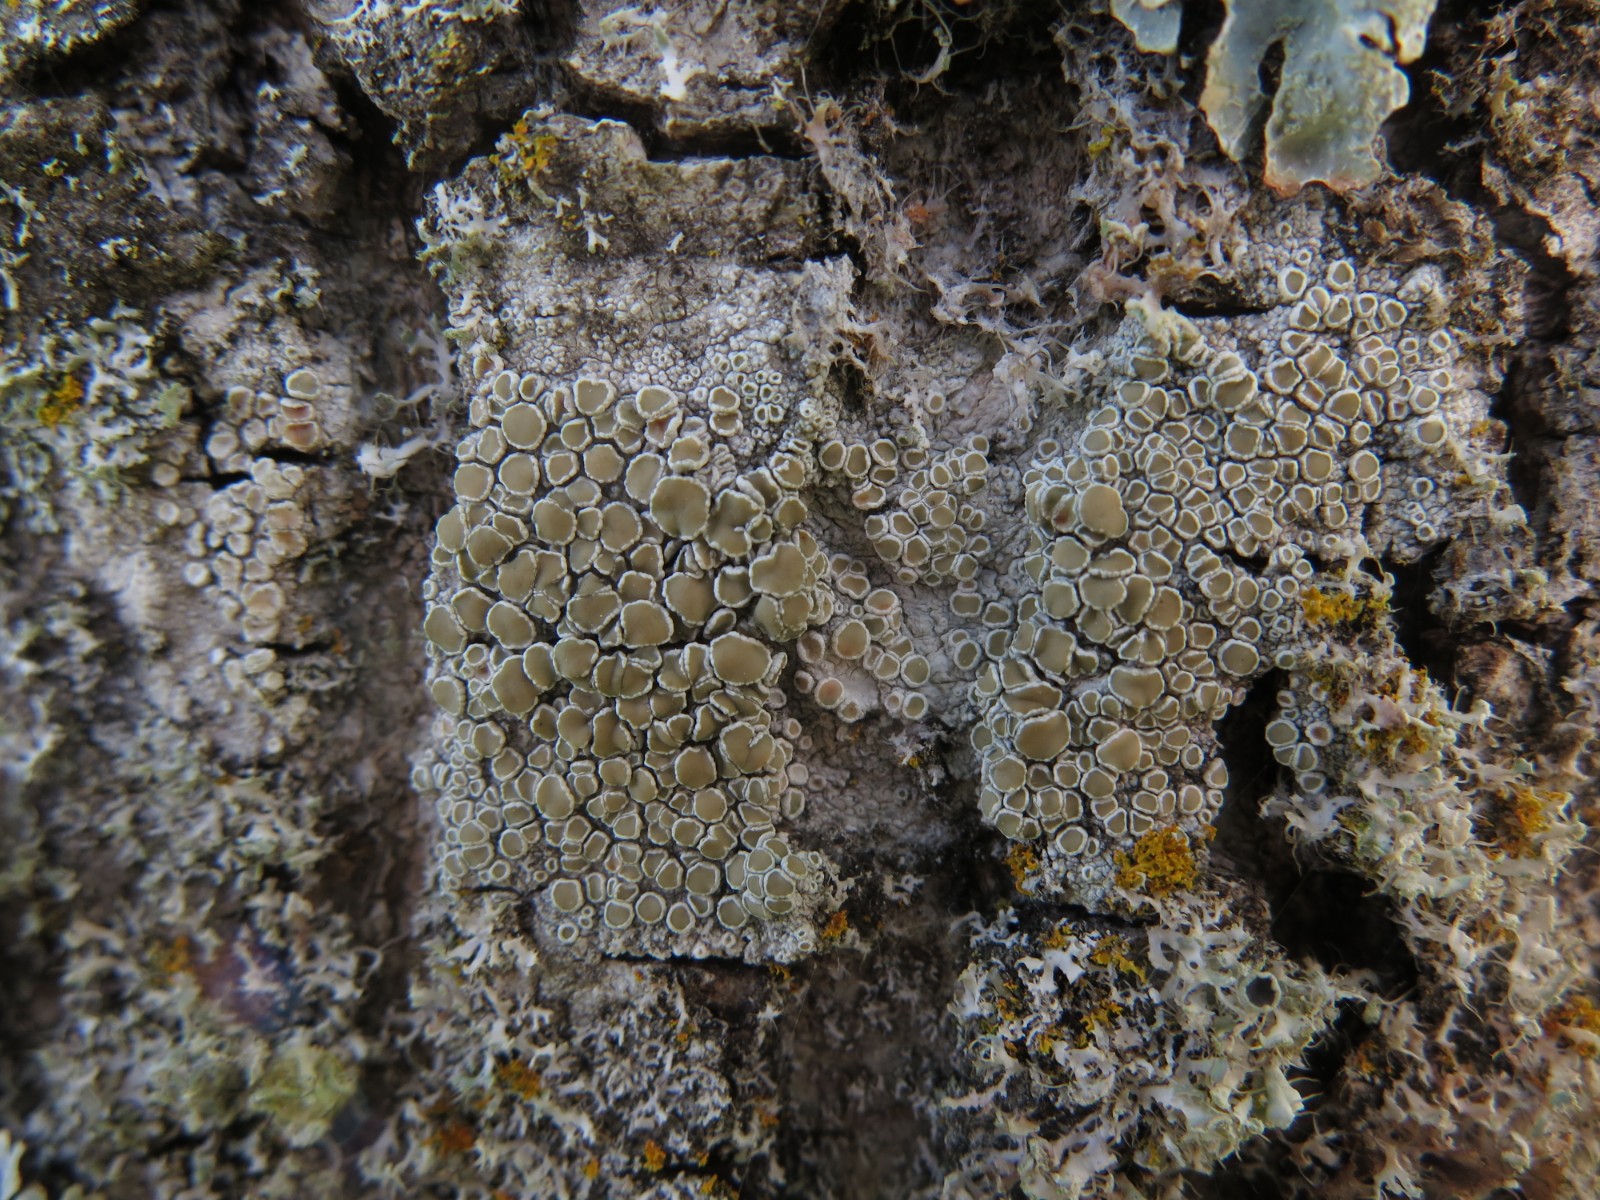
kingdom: Fungi
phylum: Ascomycota
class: Lecanoromycetes
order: Lecanorales
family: Lecanoraceae
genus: Lecanora
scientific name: Lecanora chlarotera
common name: brun kantskivelav
